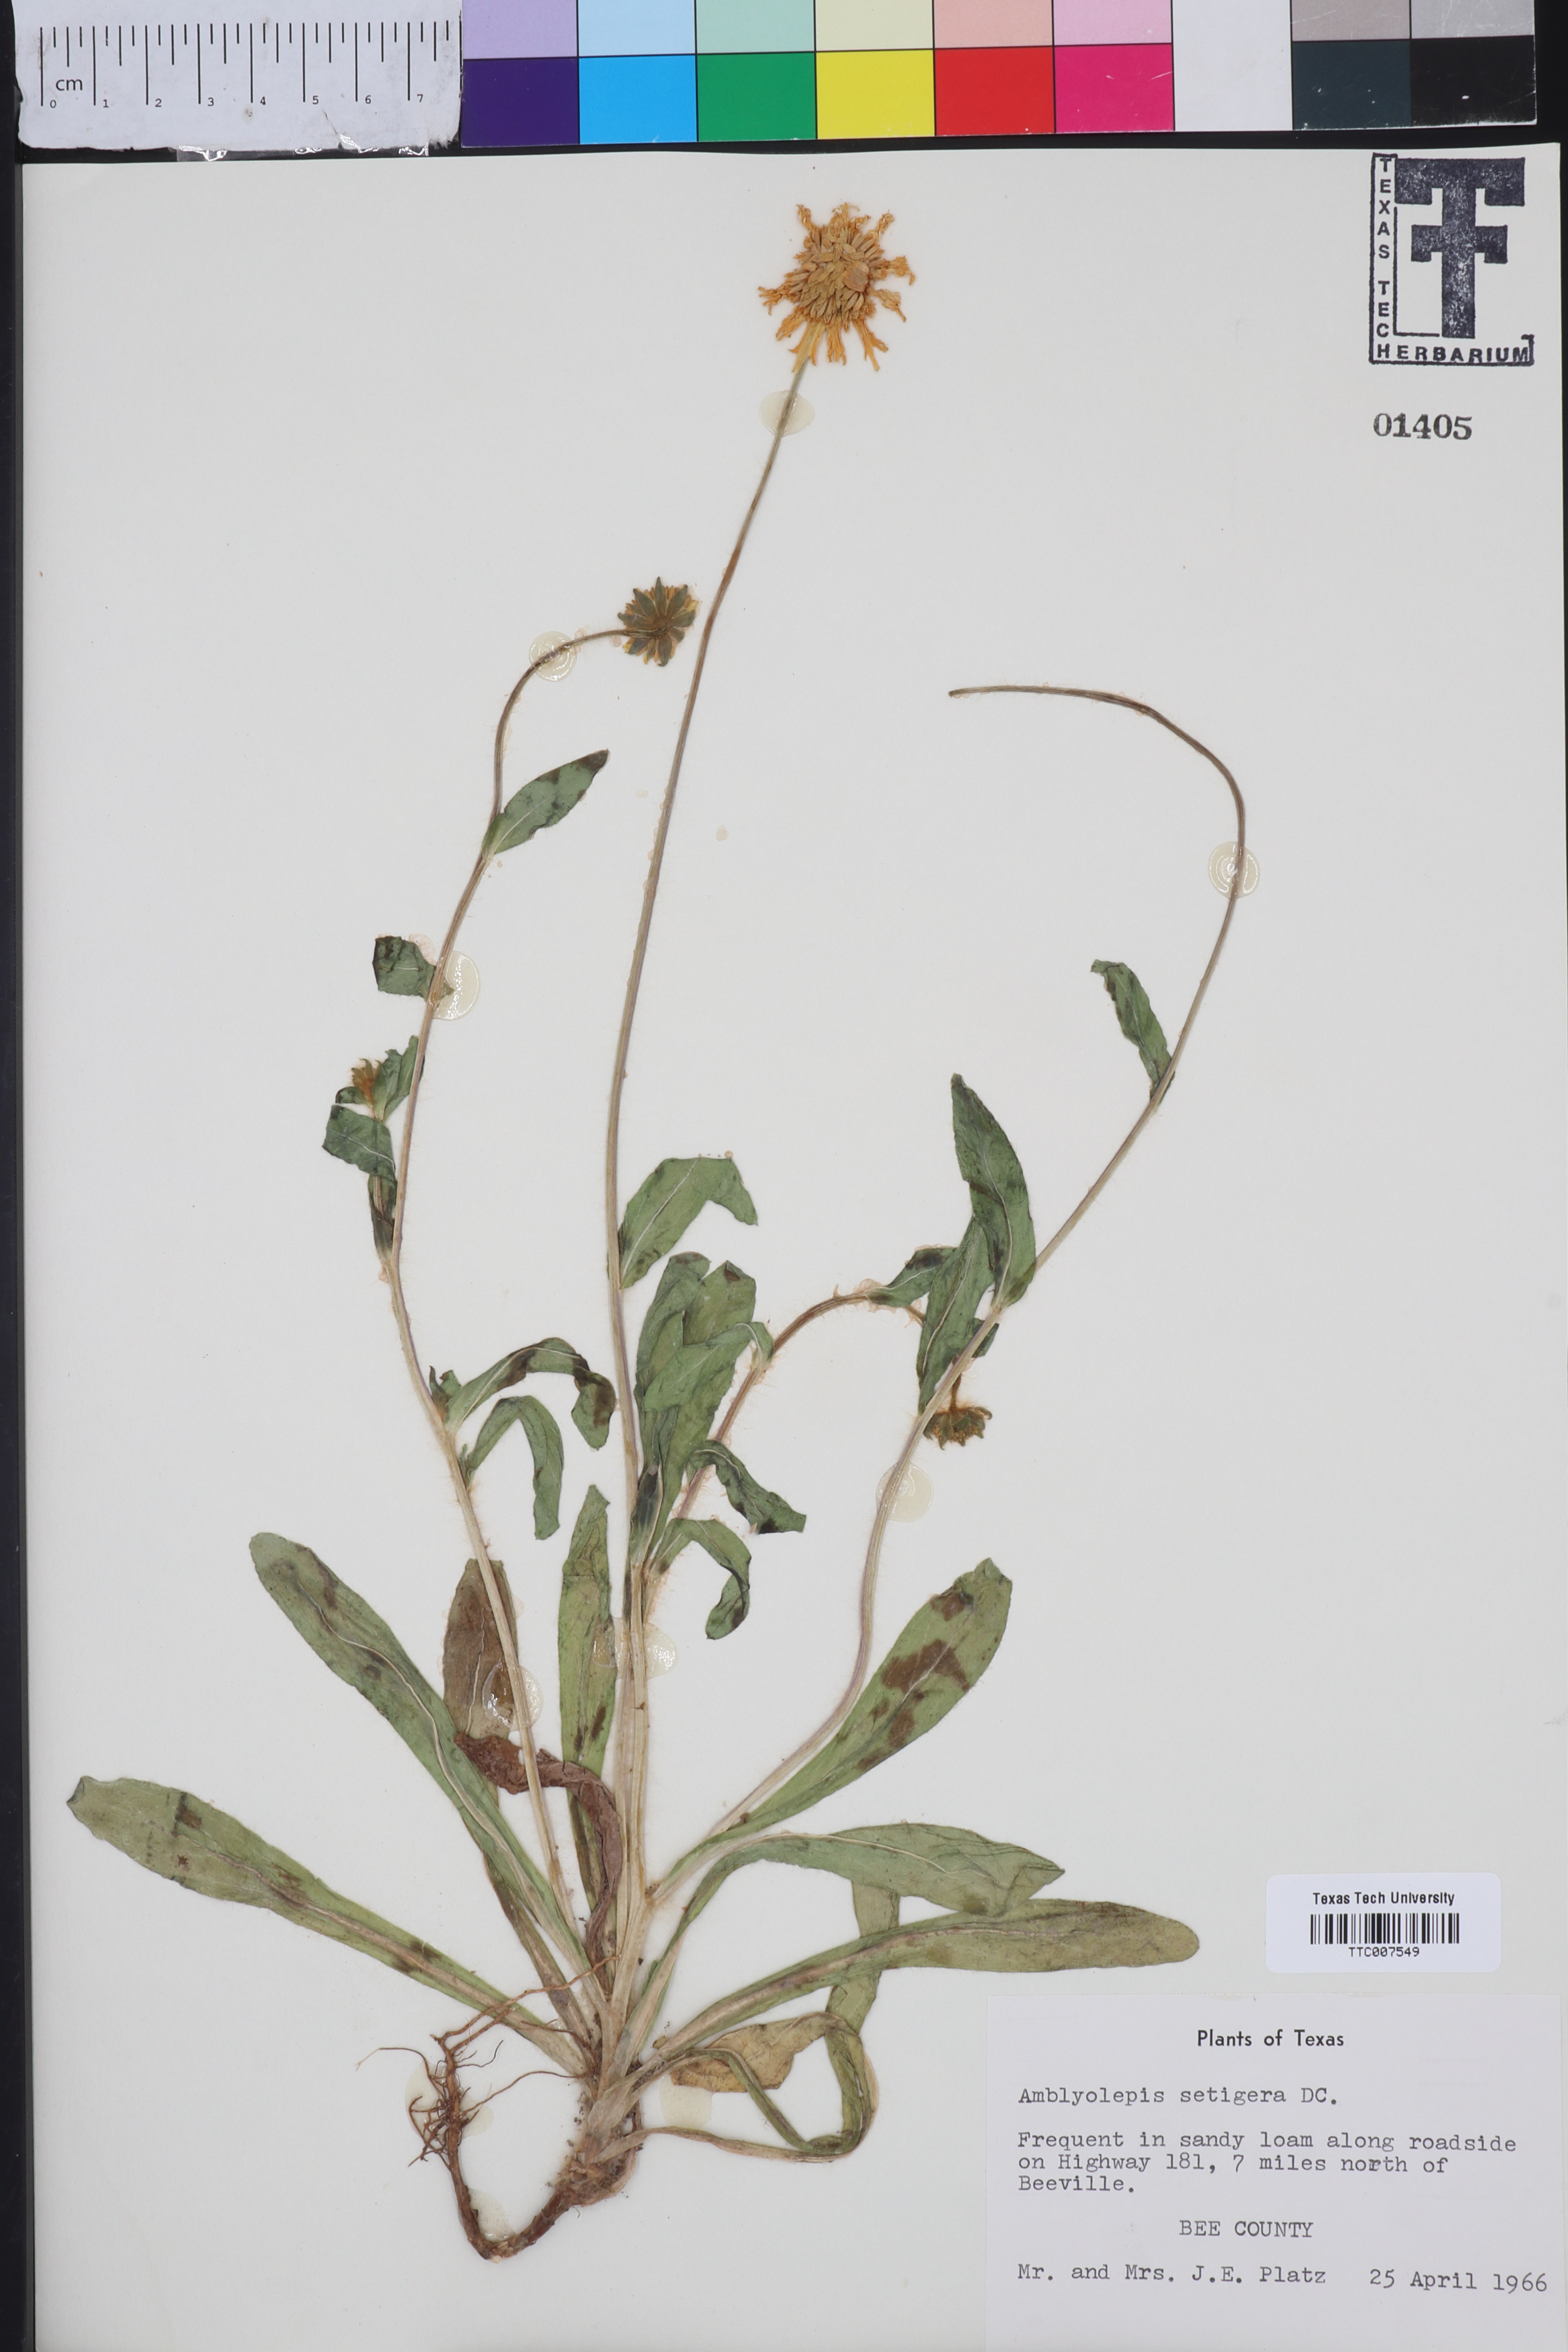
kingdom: Plantae
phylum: Tracheophyta
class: Magnoliopsida
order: Asterales
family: Asteraceae
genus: Amblyolepis
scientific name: Amblyolepis setigera
